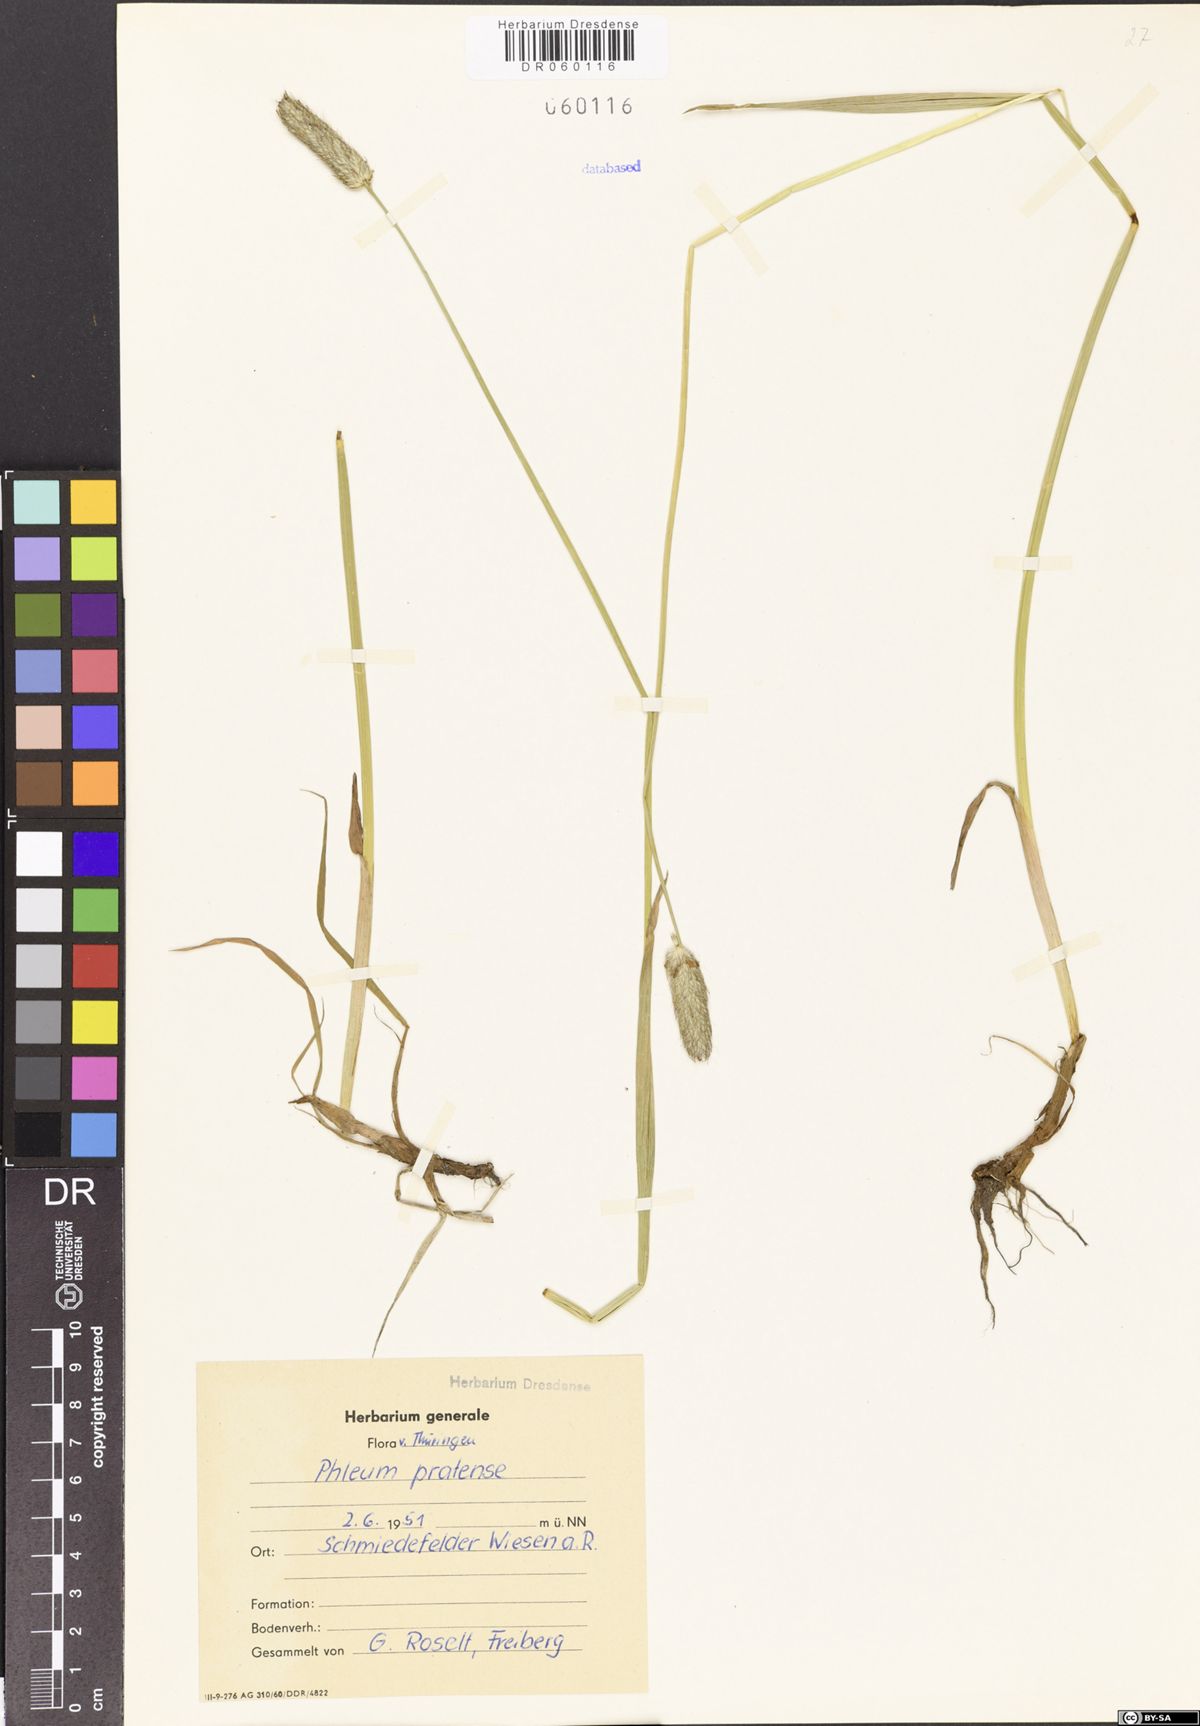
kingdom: Plantae
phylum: Tracheophyta
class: Liliopsida
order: Poales
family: Poaceae
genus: Phleum
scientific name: Phleum pratense
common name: Timothy grass
